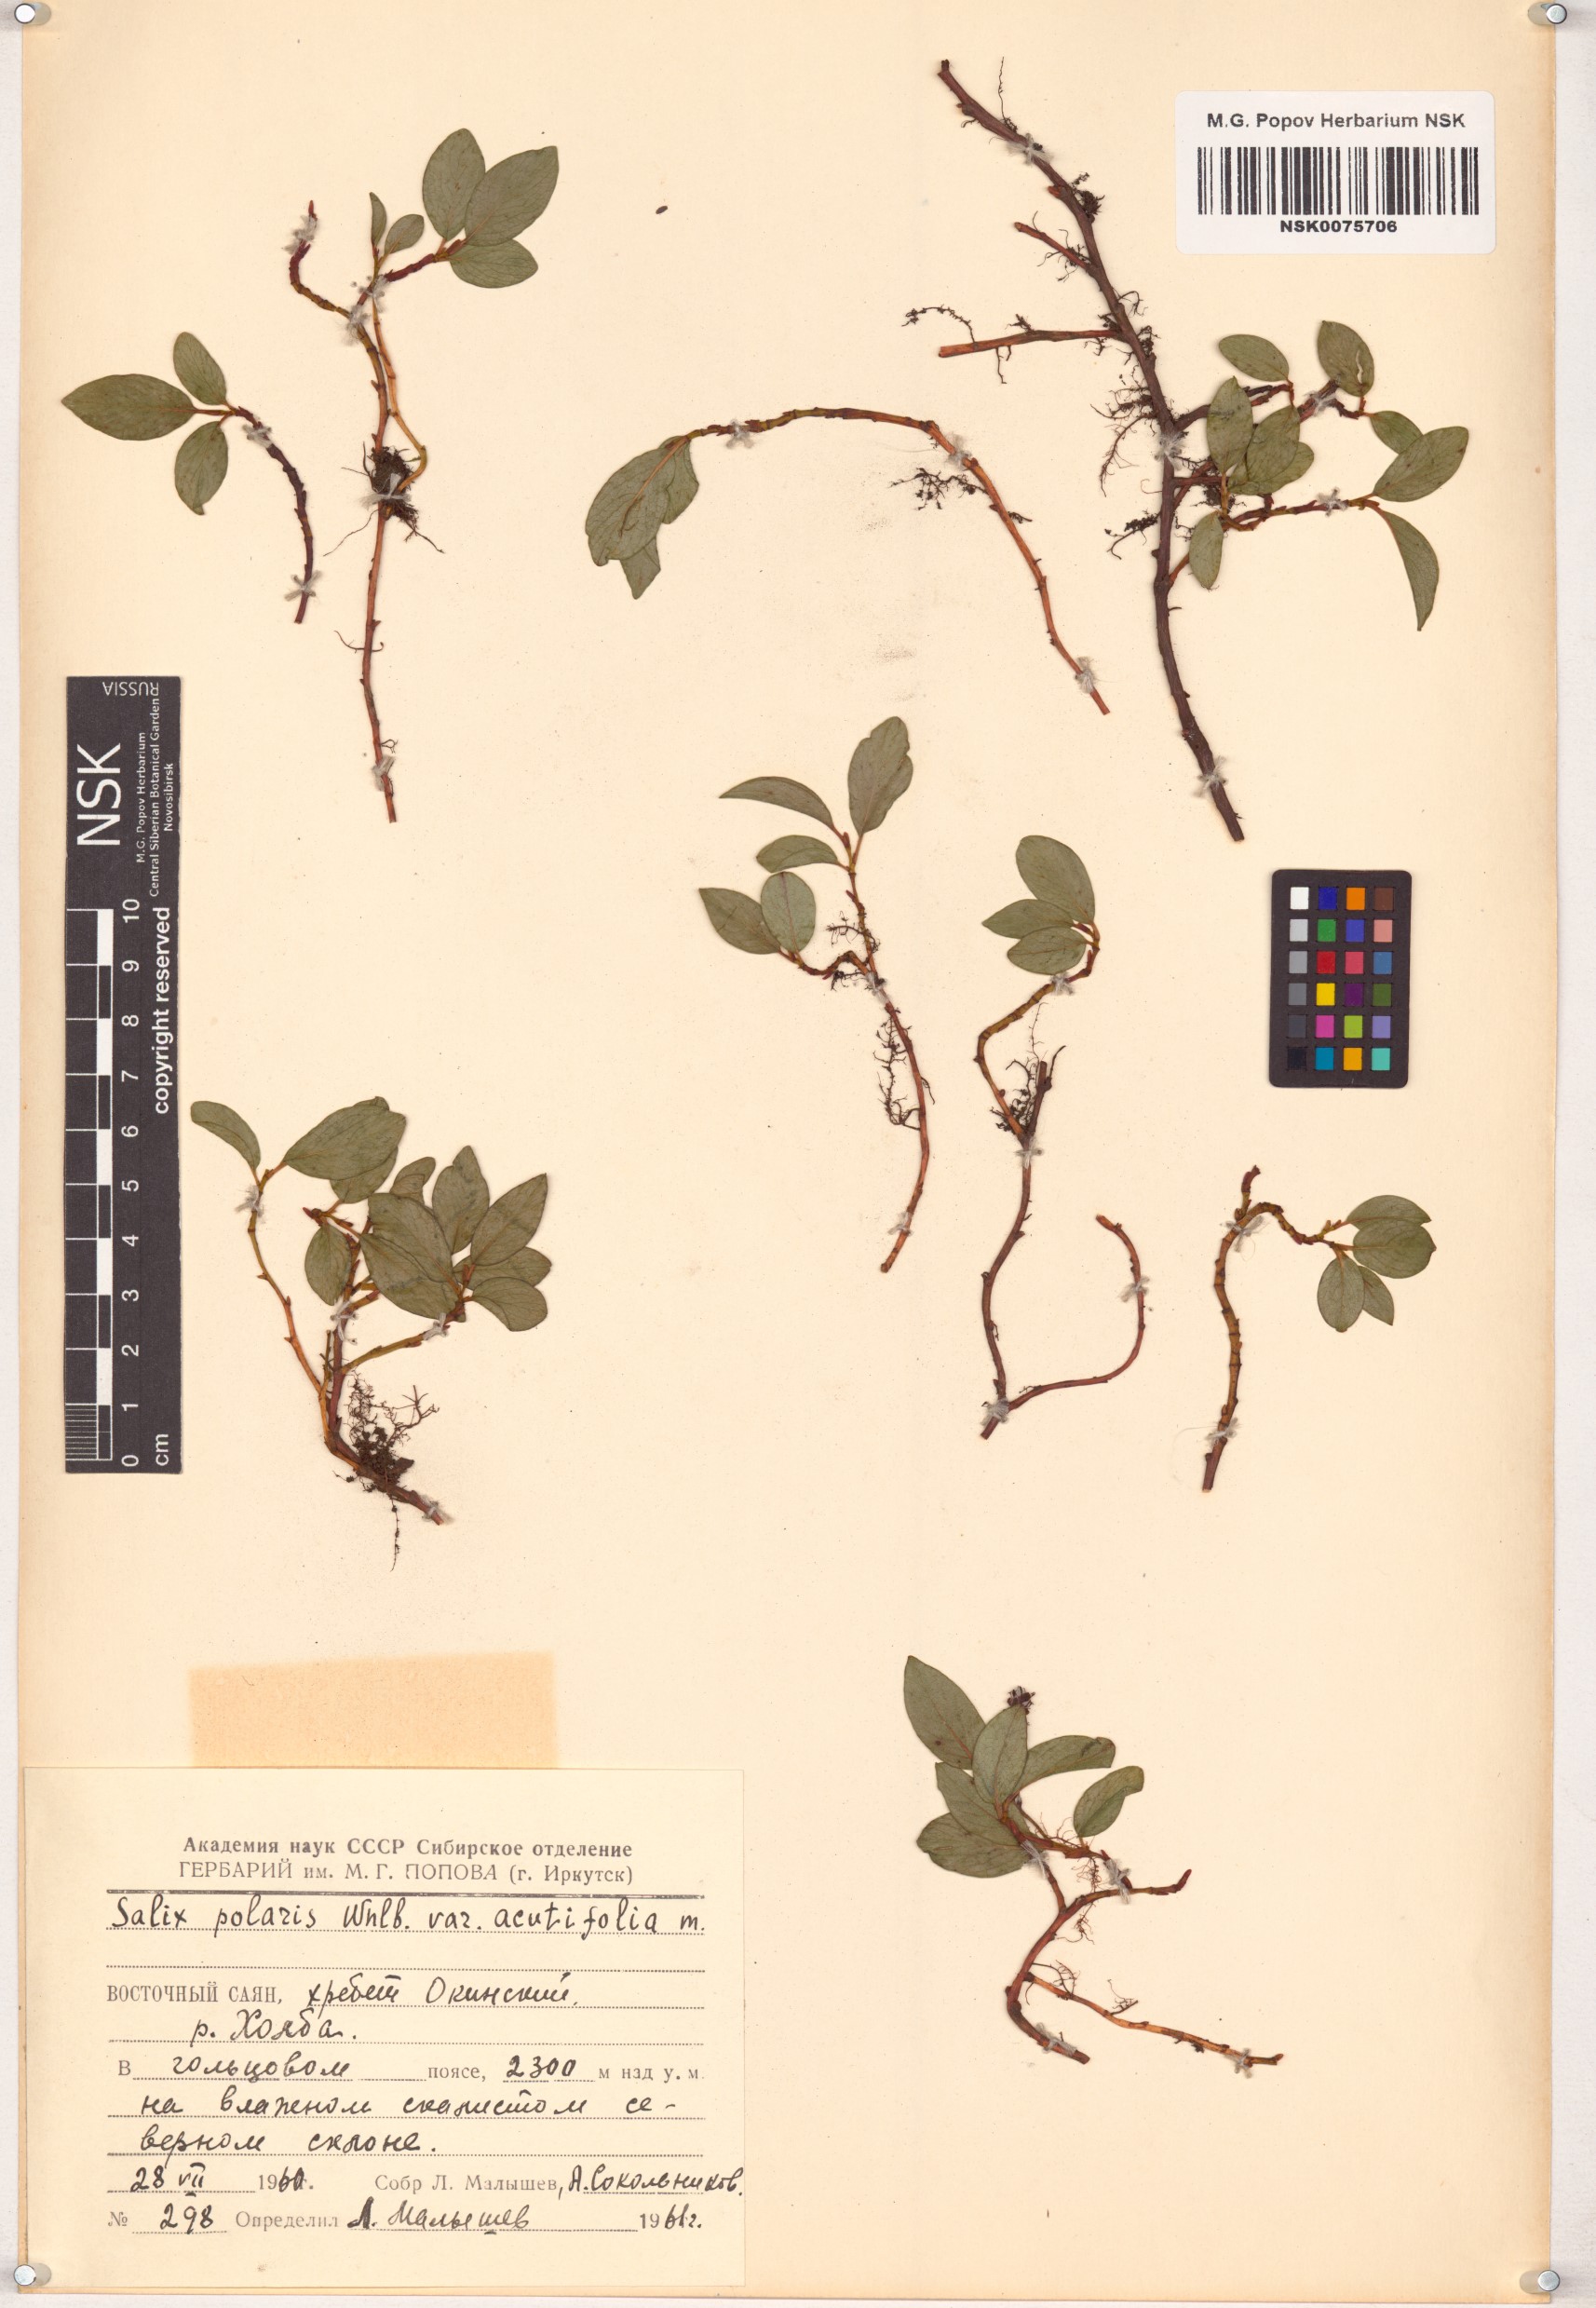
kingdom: Plantae
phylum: Tracheophyta
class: Magnoliopsida
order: Malpighiales
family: Salicaceae
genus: Salix
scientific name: Salix polaris
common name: Polar willow
